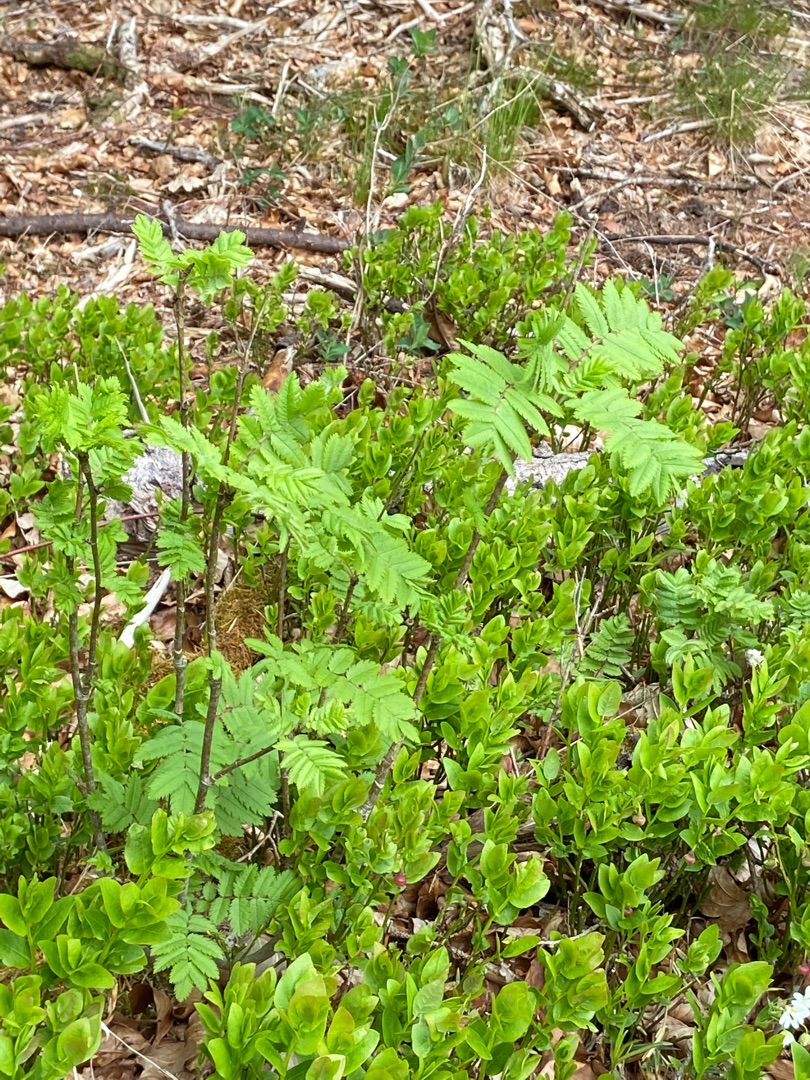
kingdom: Plantae
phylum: Tracheophyta
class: Magnoliopsida
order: Rosales
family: Rosaceae
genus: Sorbus
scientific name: Sorbus aucuparia
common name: Almindelig røn
